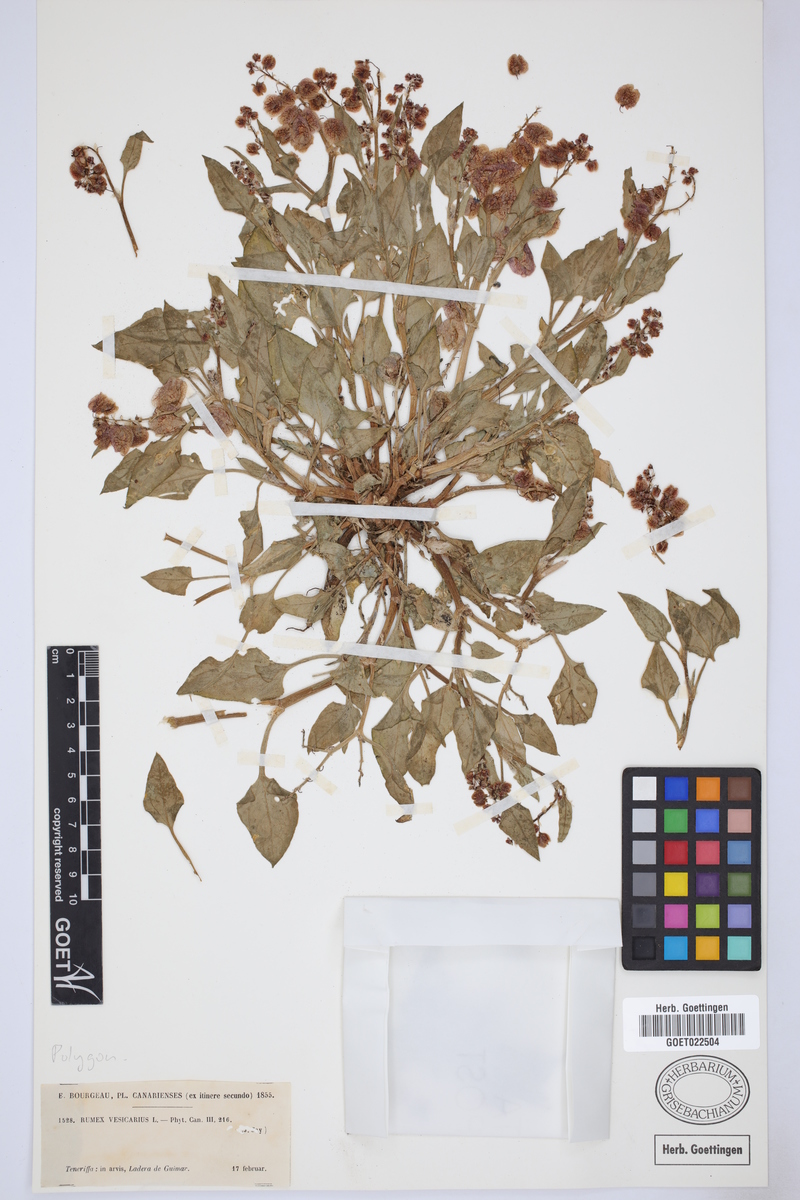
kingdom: Plantae
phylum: Tracheophyta
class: Magnoliopsida
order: Caryophyllales
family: Polygonaceae
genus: Rumex
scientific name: Rumex vesicarius
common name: Bladder dock
